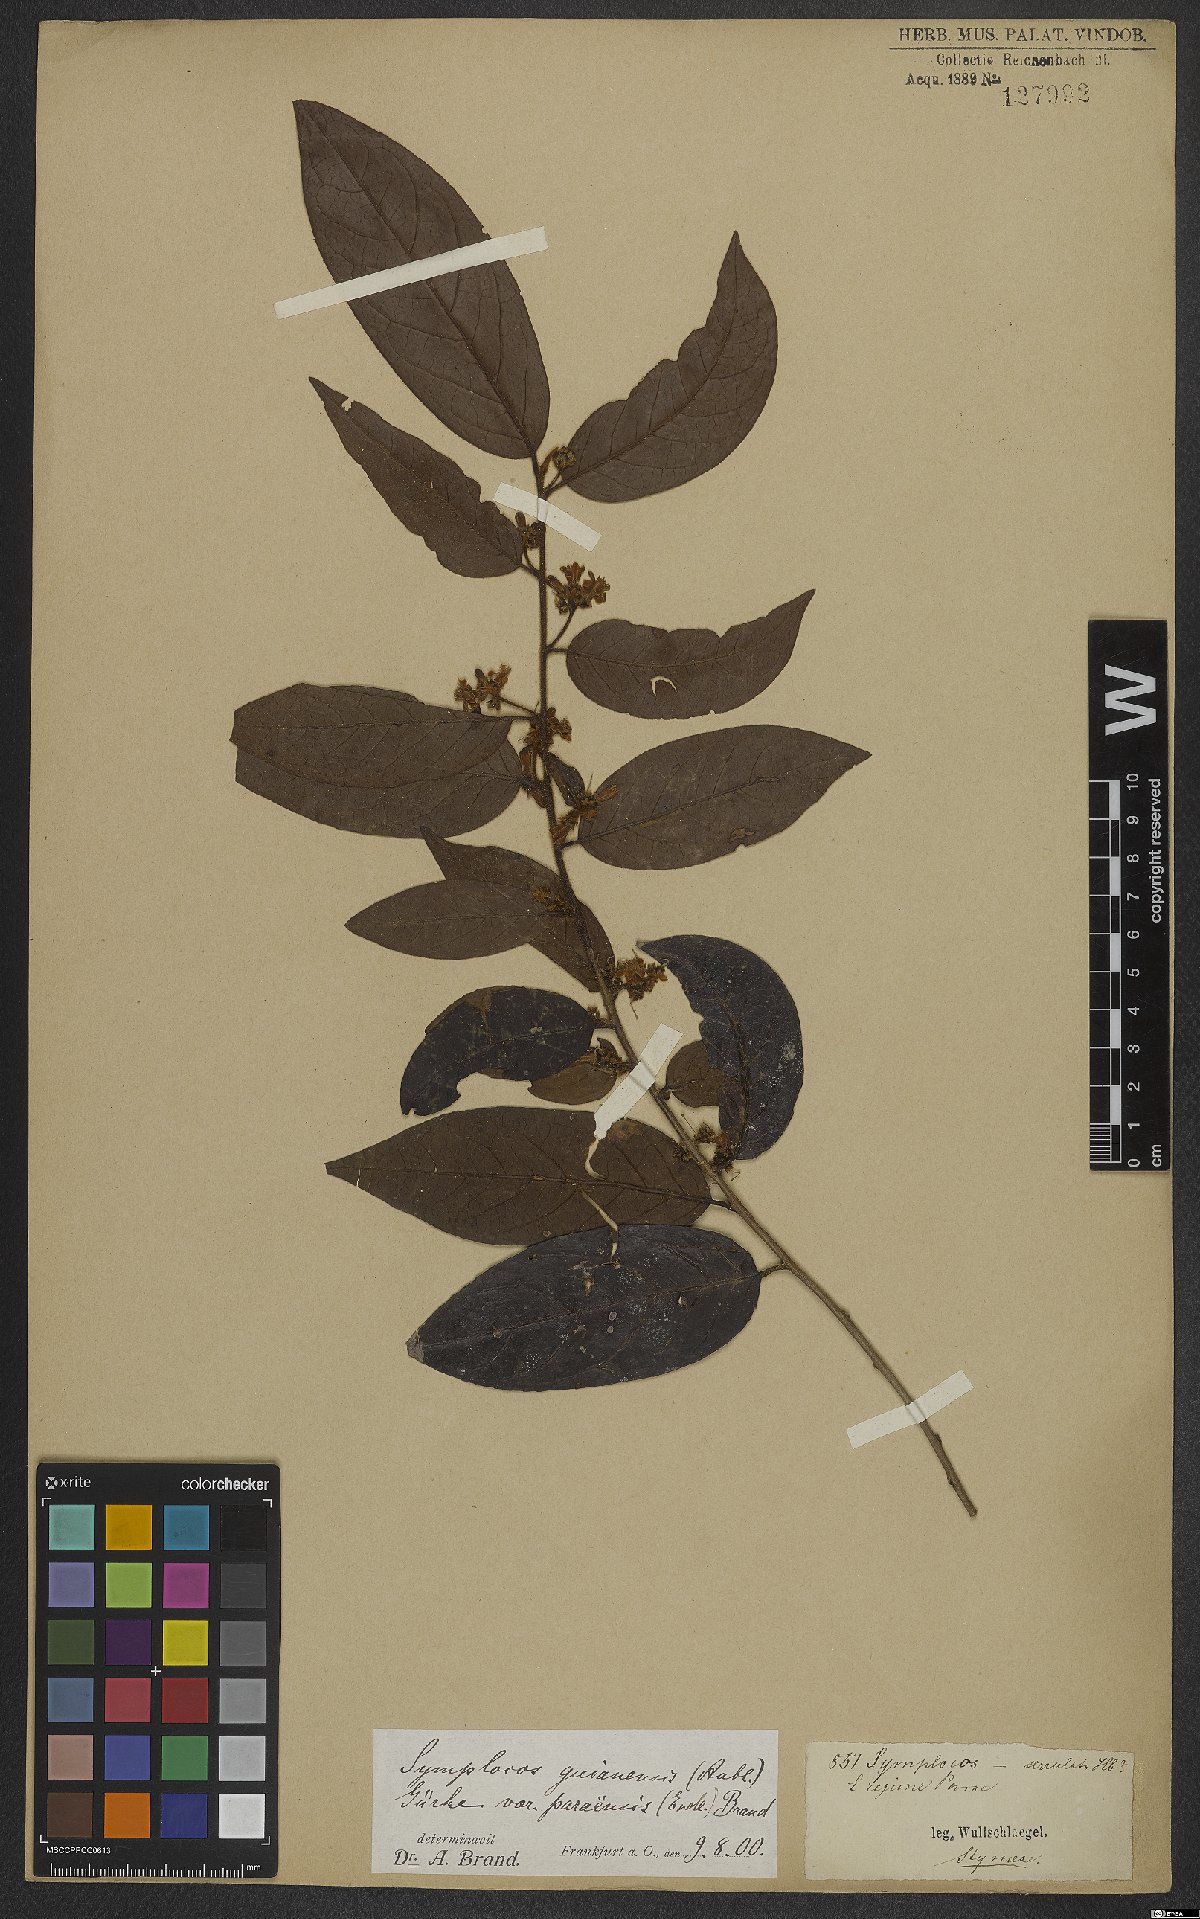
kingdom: Plantae
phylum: Tracheophyta
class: Magnoliopsida
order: Ericales
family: Symplocaceae
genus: Symplocos
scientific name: Symplocos guianensis
